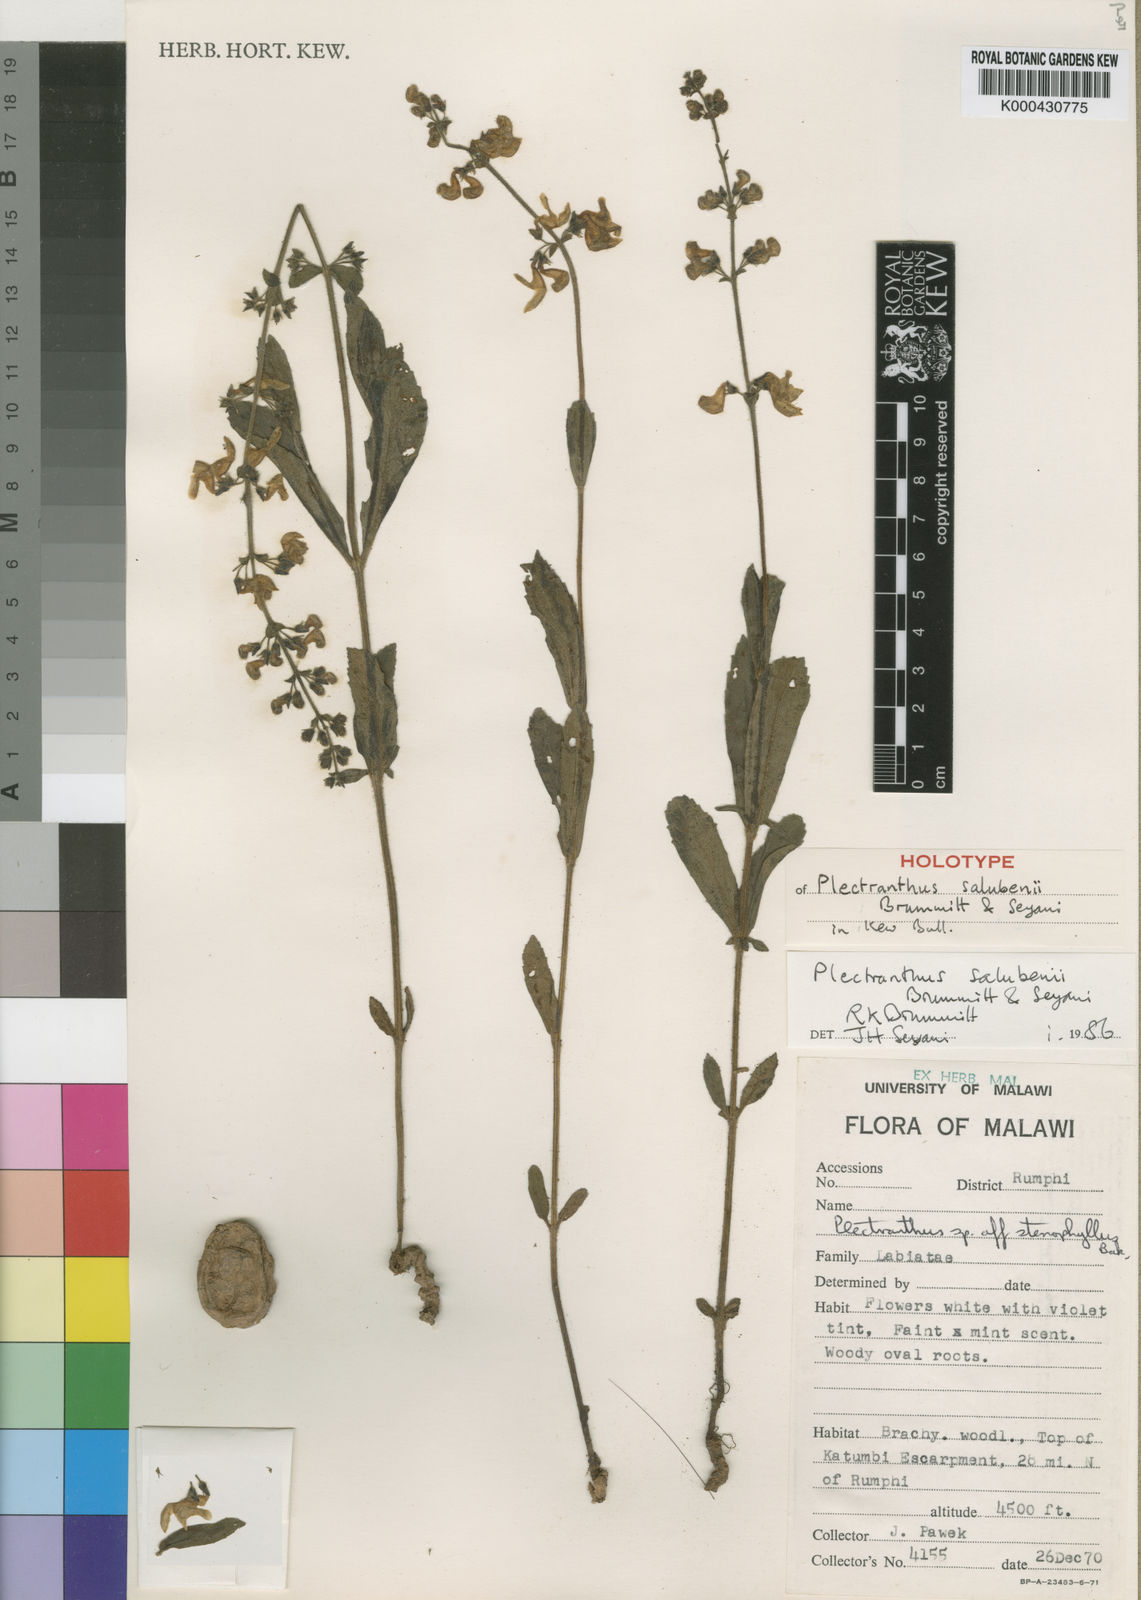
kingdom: Plantae
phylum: Tracheophyta
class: Magnoliopsida
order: Lamiales
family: Lamiaceae
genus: Equilabium
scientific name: Equilabium goetzei
